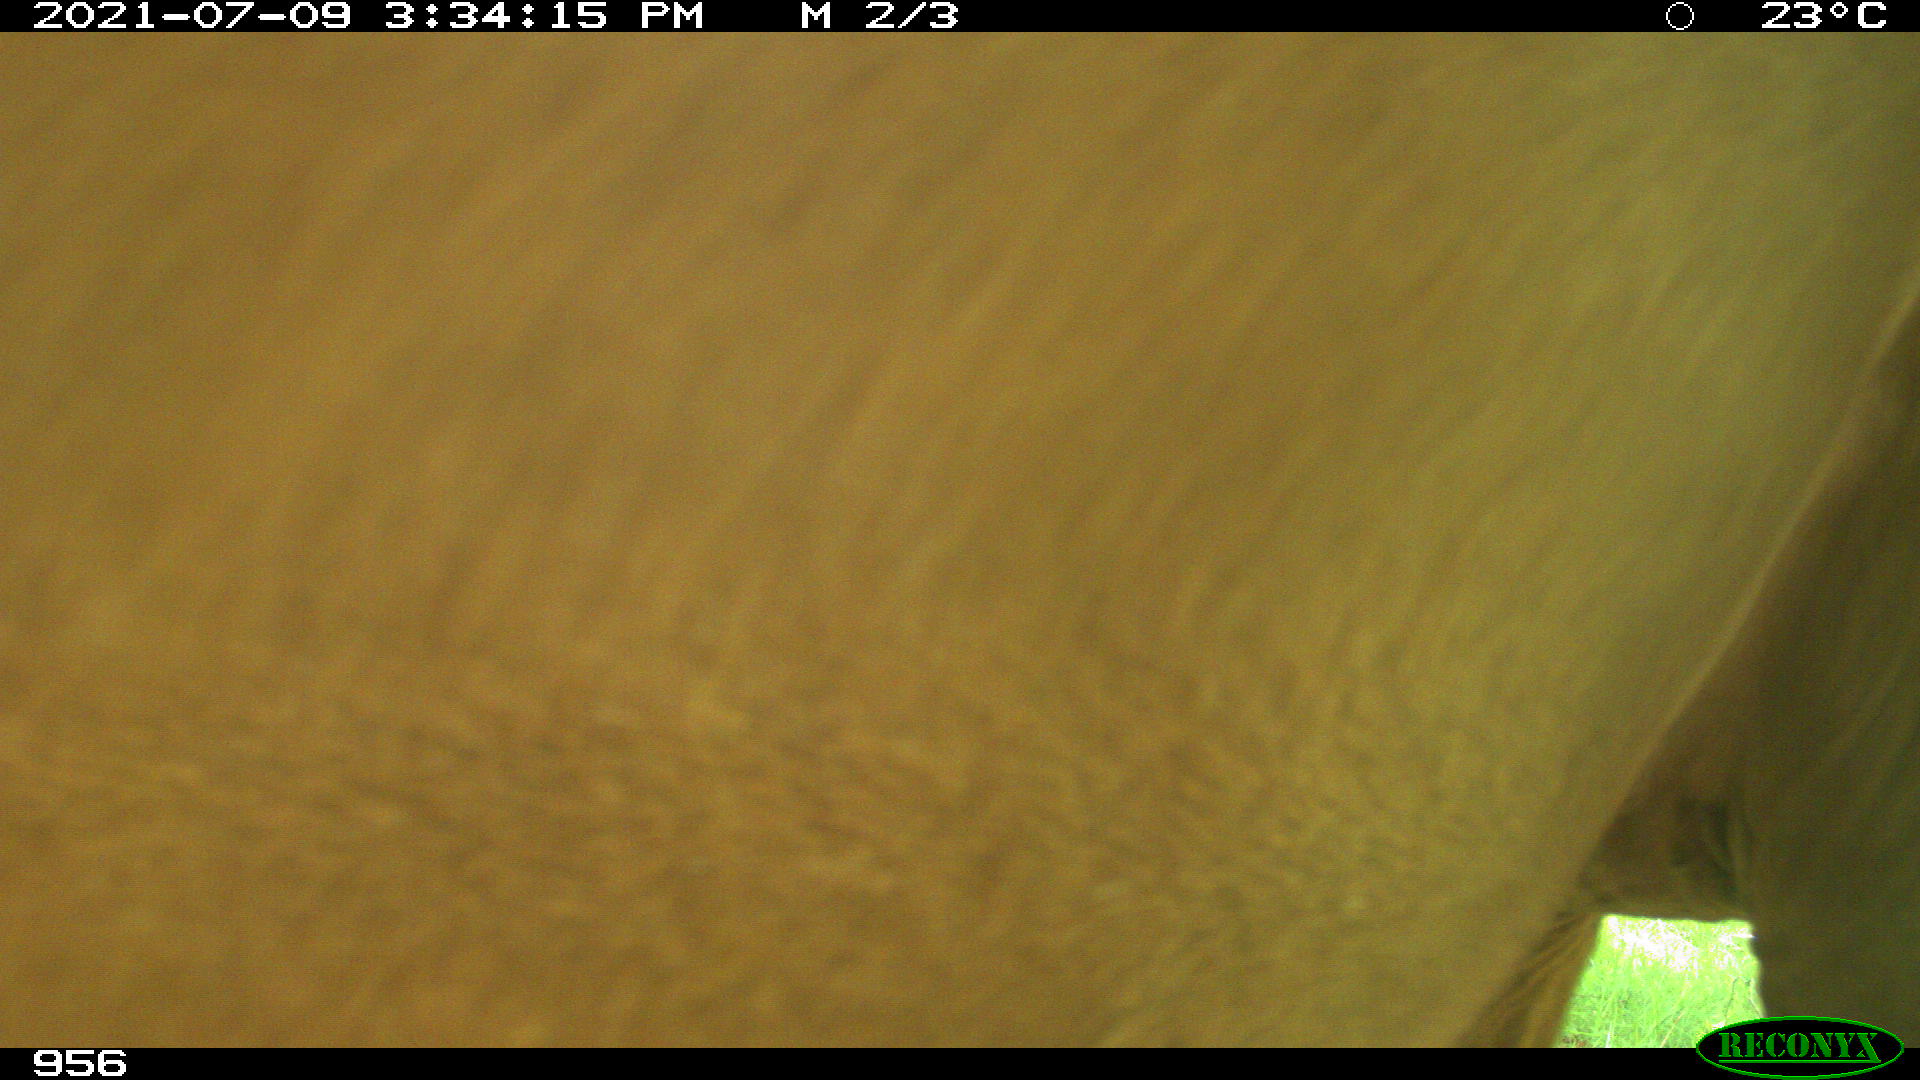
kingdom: Animalia
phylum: Chordata
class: Mammalia
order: Perissodactyla
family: Equidae
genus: Equus
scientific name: Equus caballus
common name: Horse
